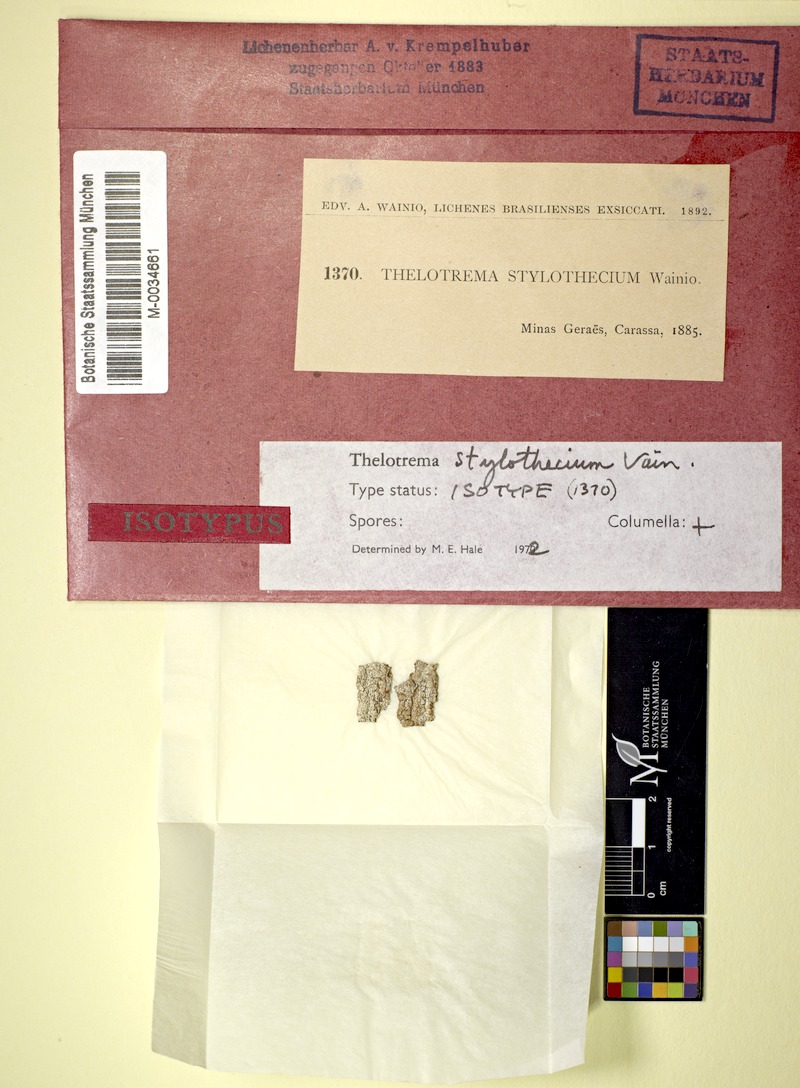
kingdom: Fungi
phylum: Ascomycota
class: Lecanoromycetes
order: Ostropales
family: Graphidaceae
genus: Clandestinotrema
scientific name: Clandestinotrema stylothecium
